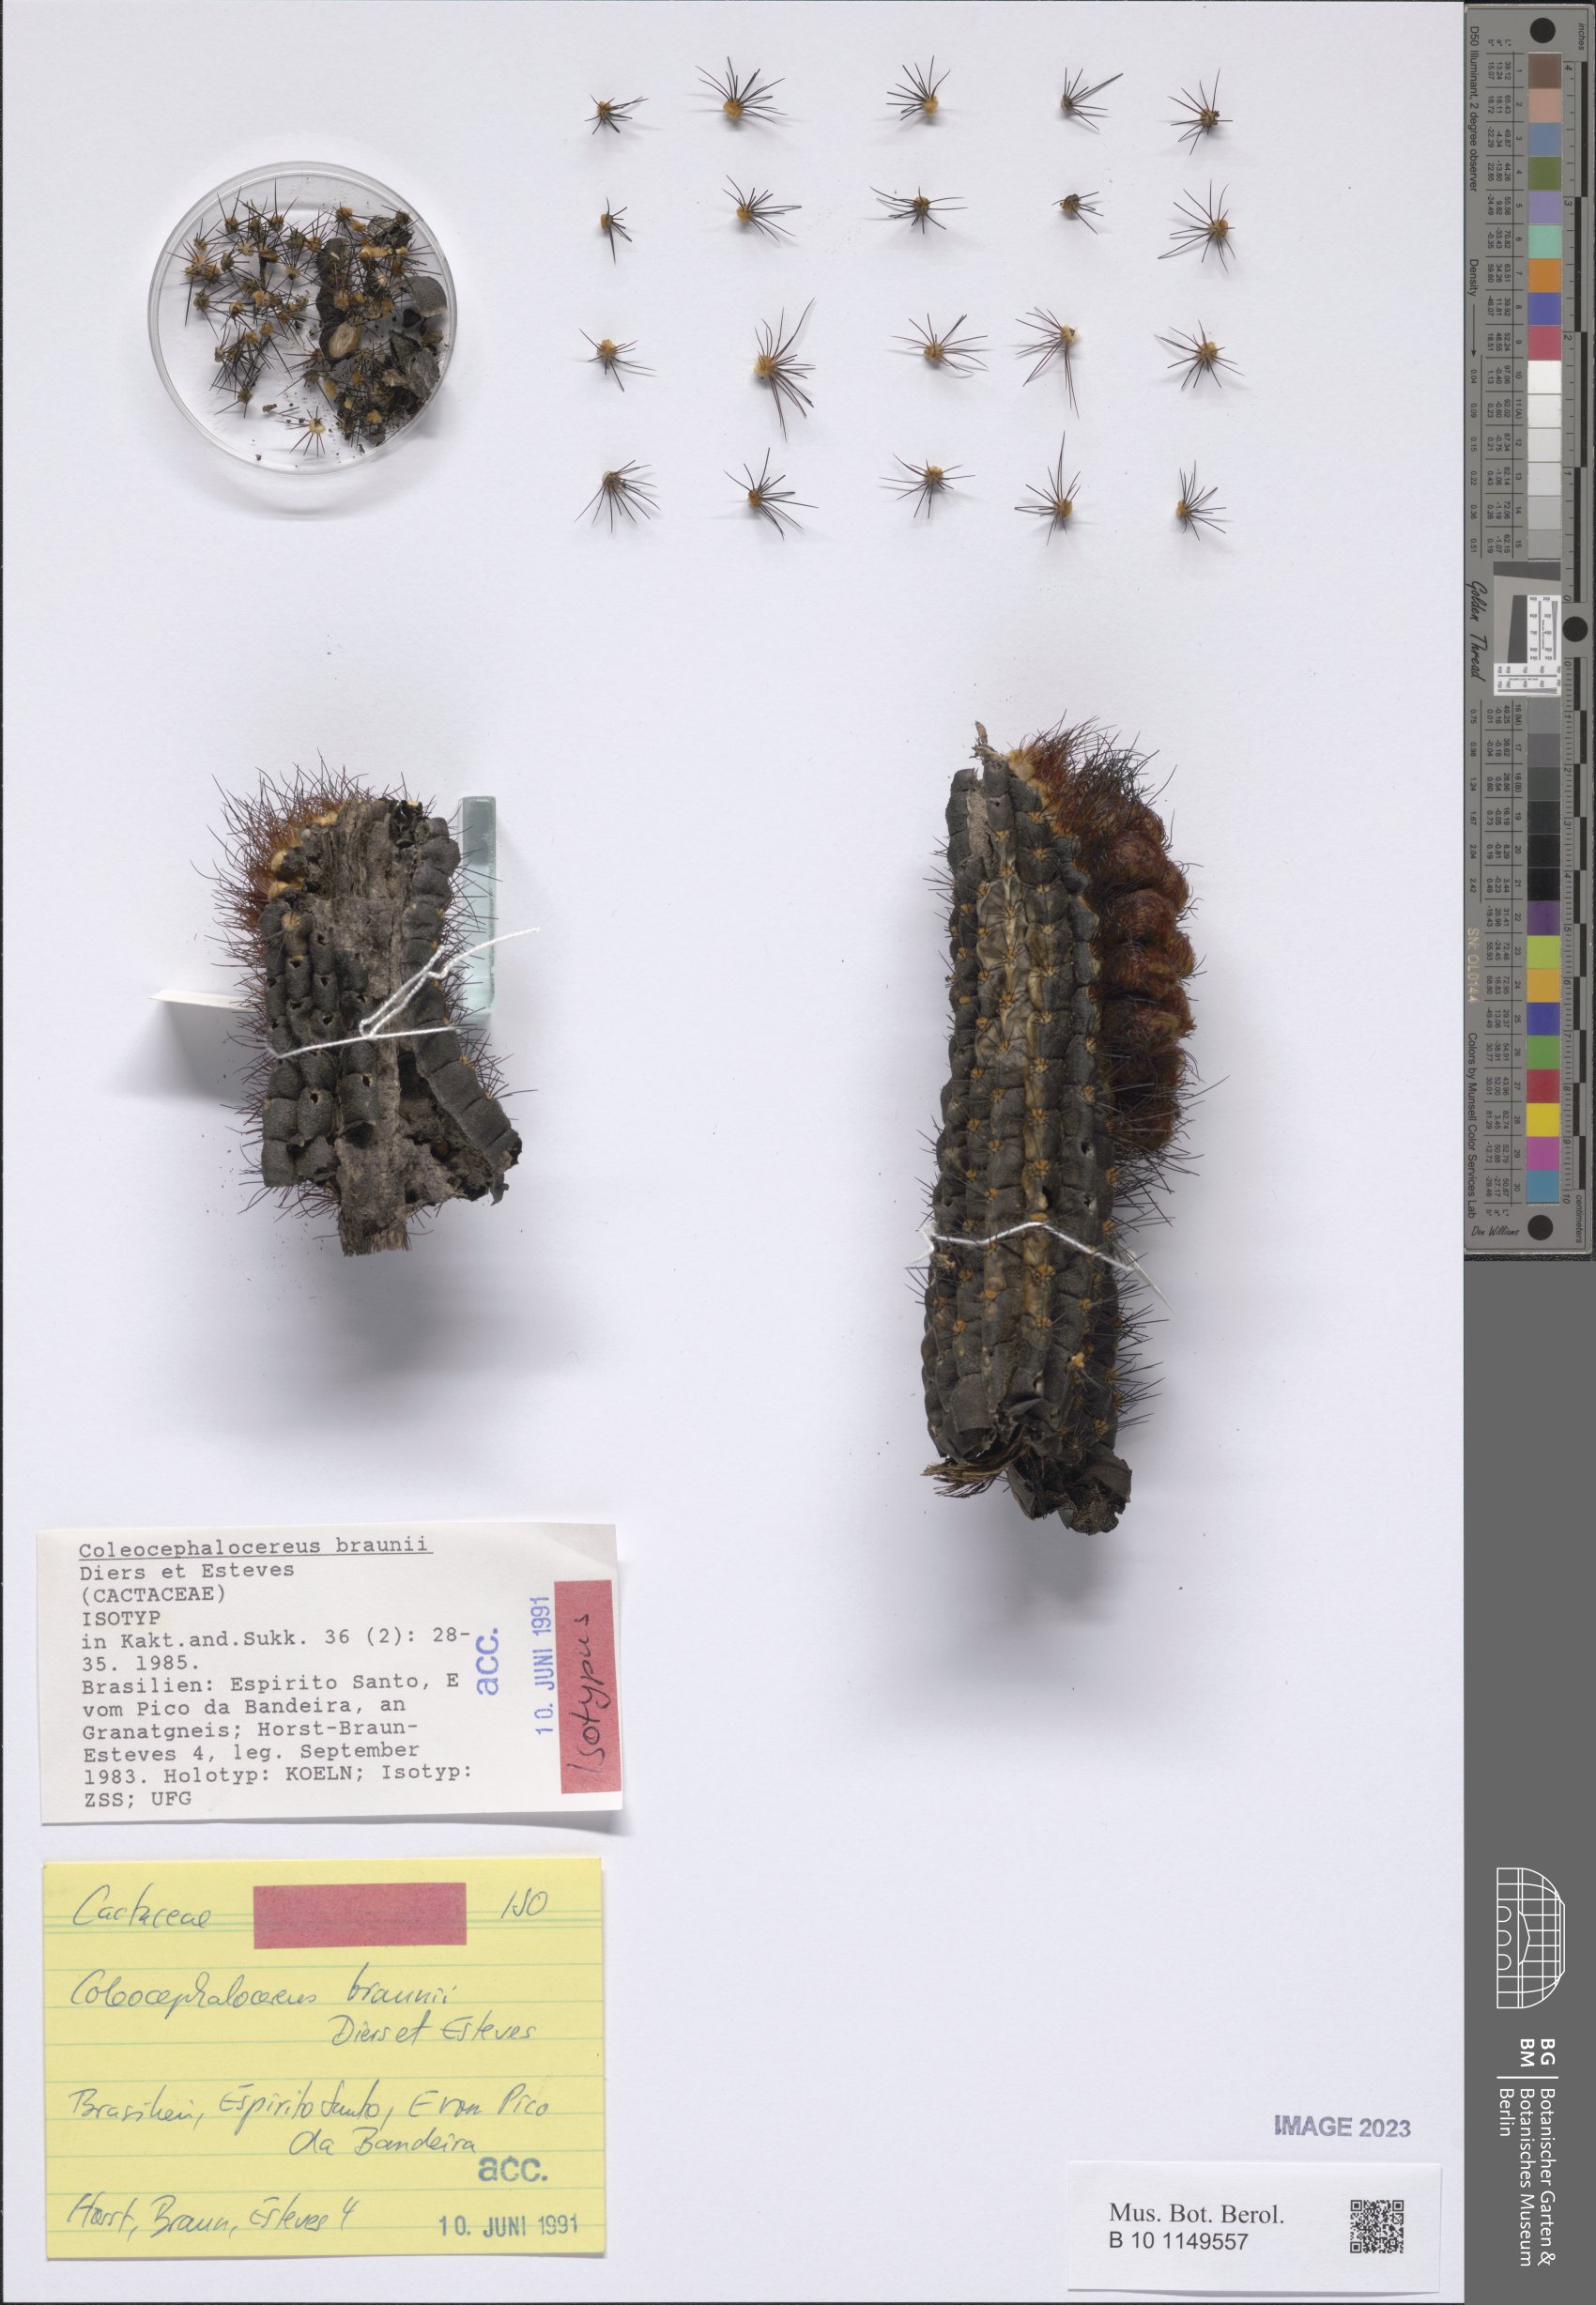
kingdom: Plantae
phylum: Tracheophyta
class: Magnoliopsida
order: Caryophyllales
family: Cactaceae
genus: Coleocephalocereus
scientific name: Coleocephalocereus braunii
